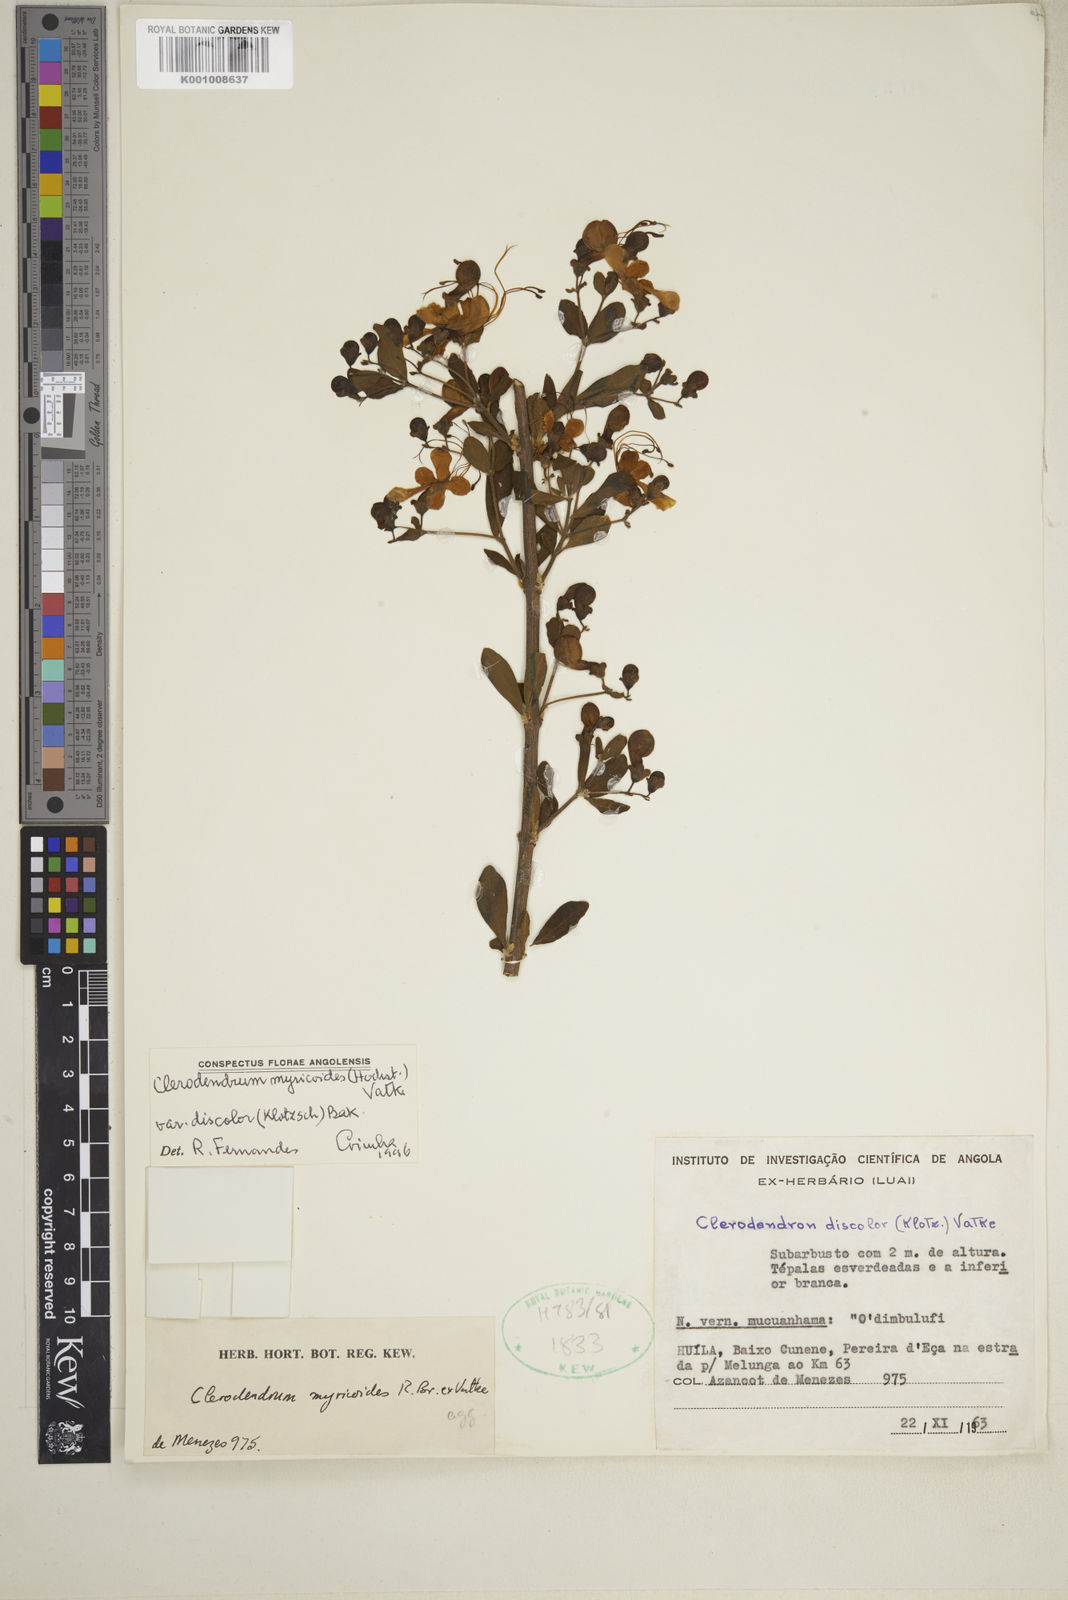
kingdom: Plantae
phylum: Tracheophyta
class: Magnoliopsida
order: Lamiales
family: Lamiaceae
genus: Rotheca
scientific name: Rotheca myricoides
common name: Cats-whiskers
